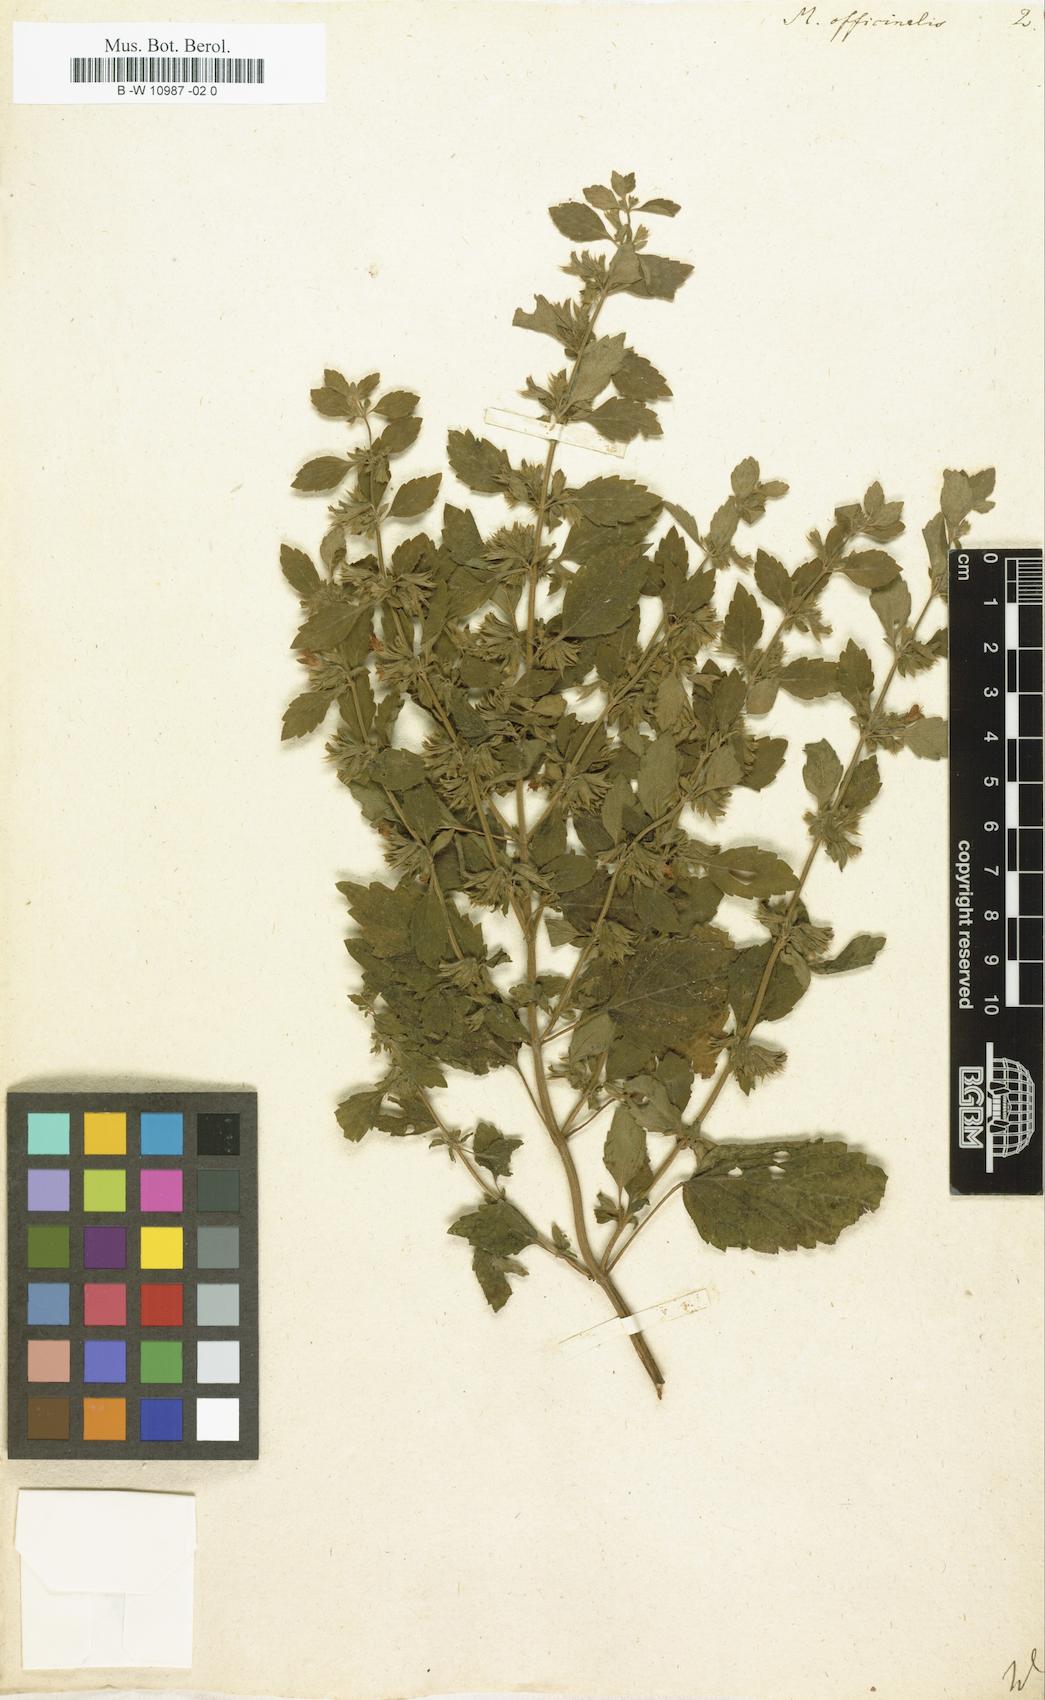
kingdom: Plantae
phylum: Tracheophyta
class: Magnoliopsida
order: Lamiales
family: Lamiaceae
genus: Melissa
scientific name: Melissa officinalis
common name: Balm
